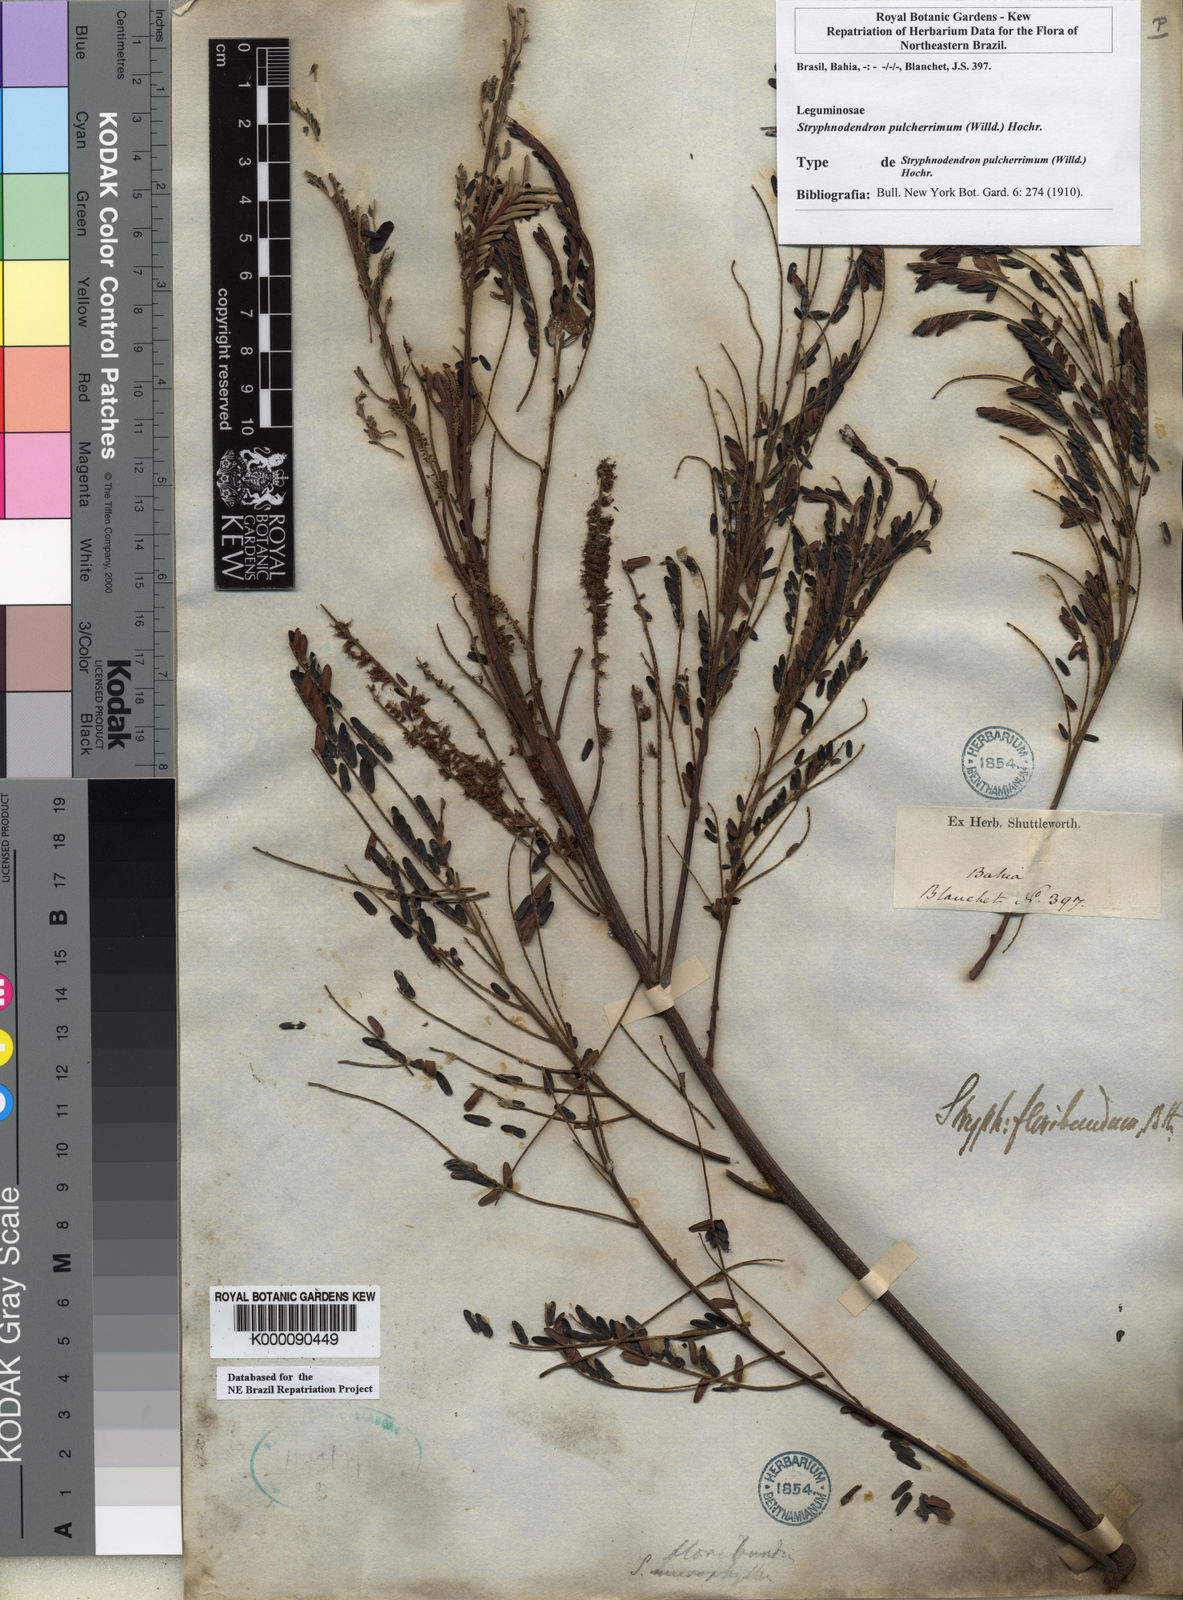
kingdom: Plantae
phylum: Tracheophyta
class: Magnoliopsida
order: Fabales
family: Fabaceae
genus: Stryphnodendron
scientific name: Stryphnodendron pulcherrimum
